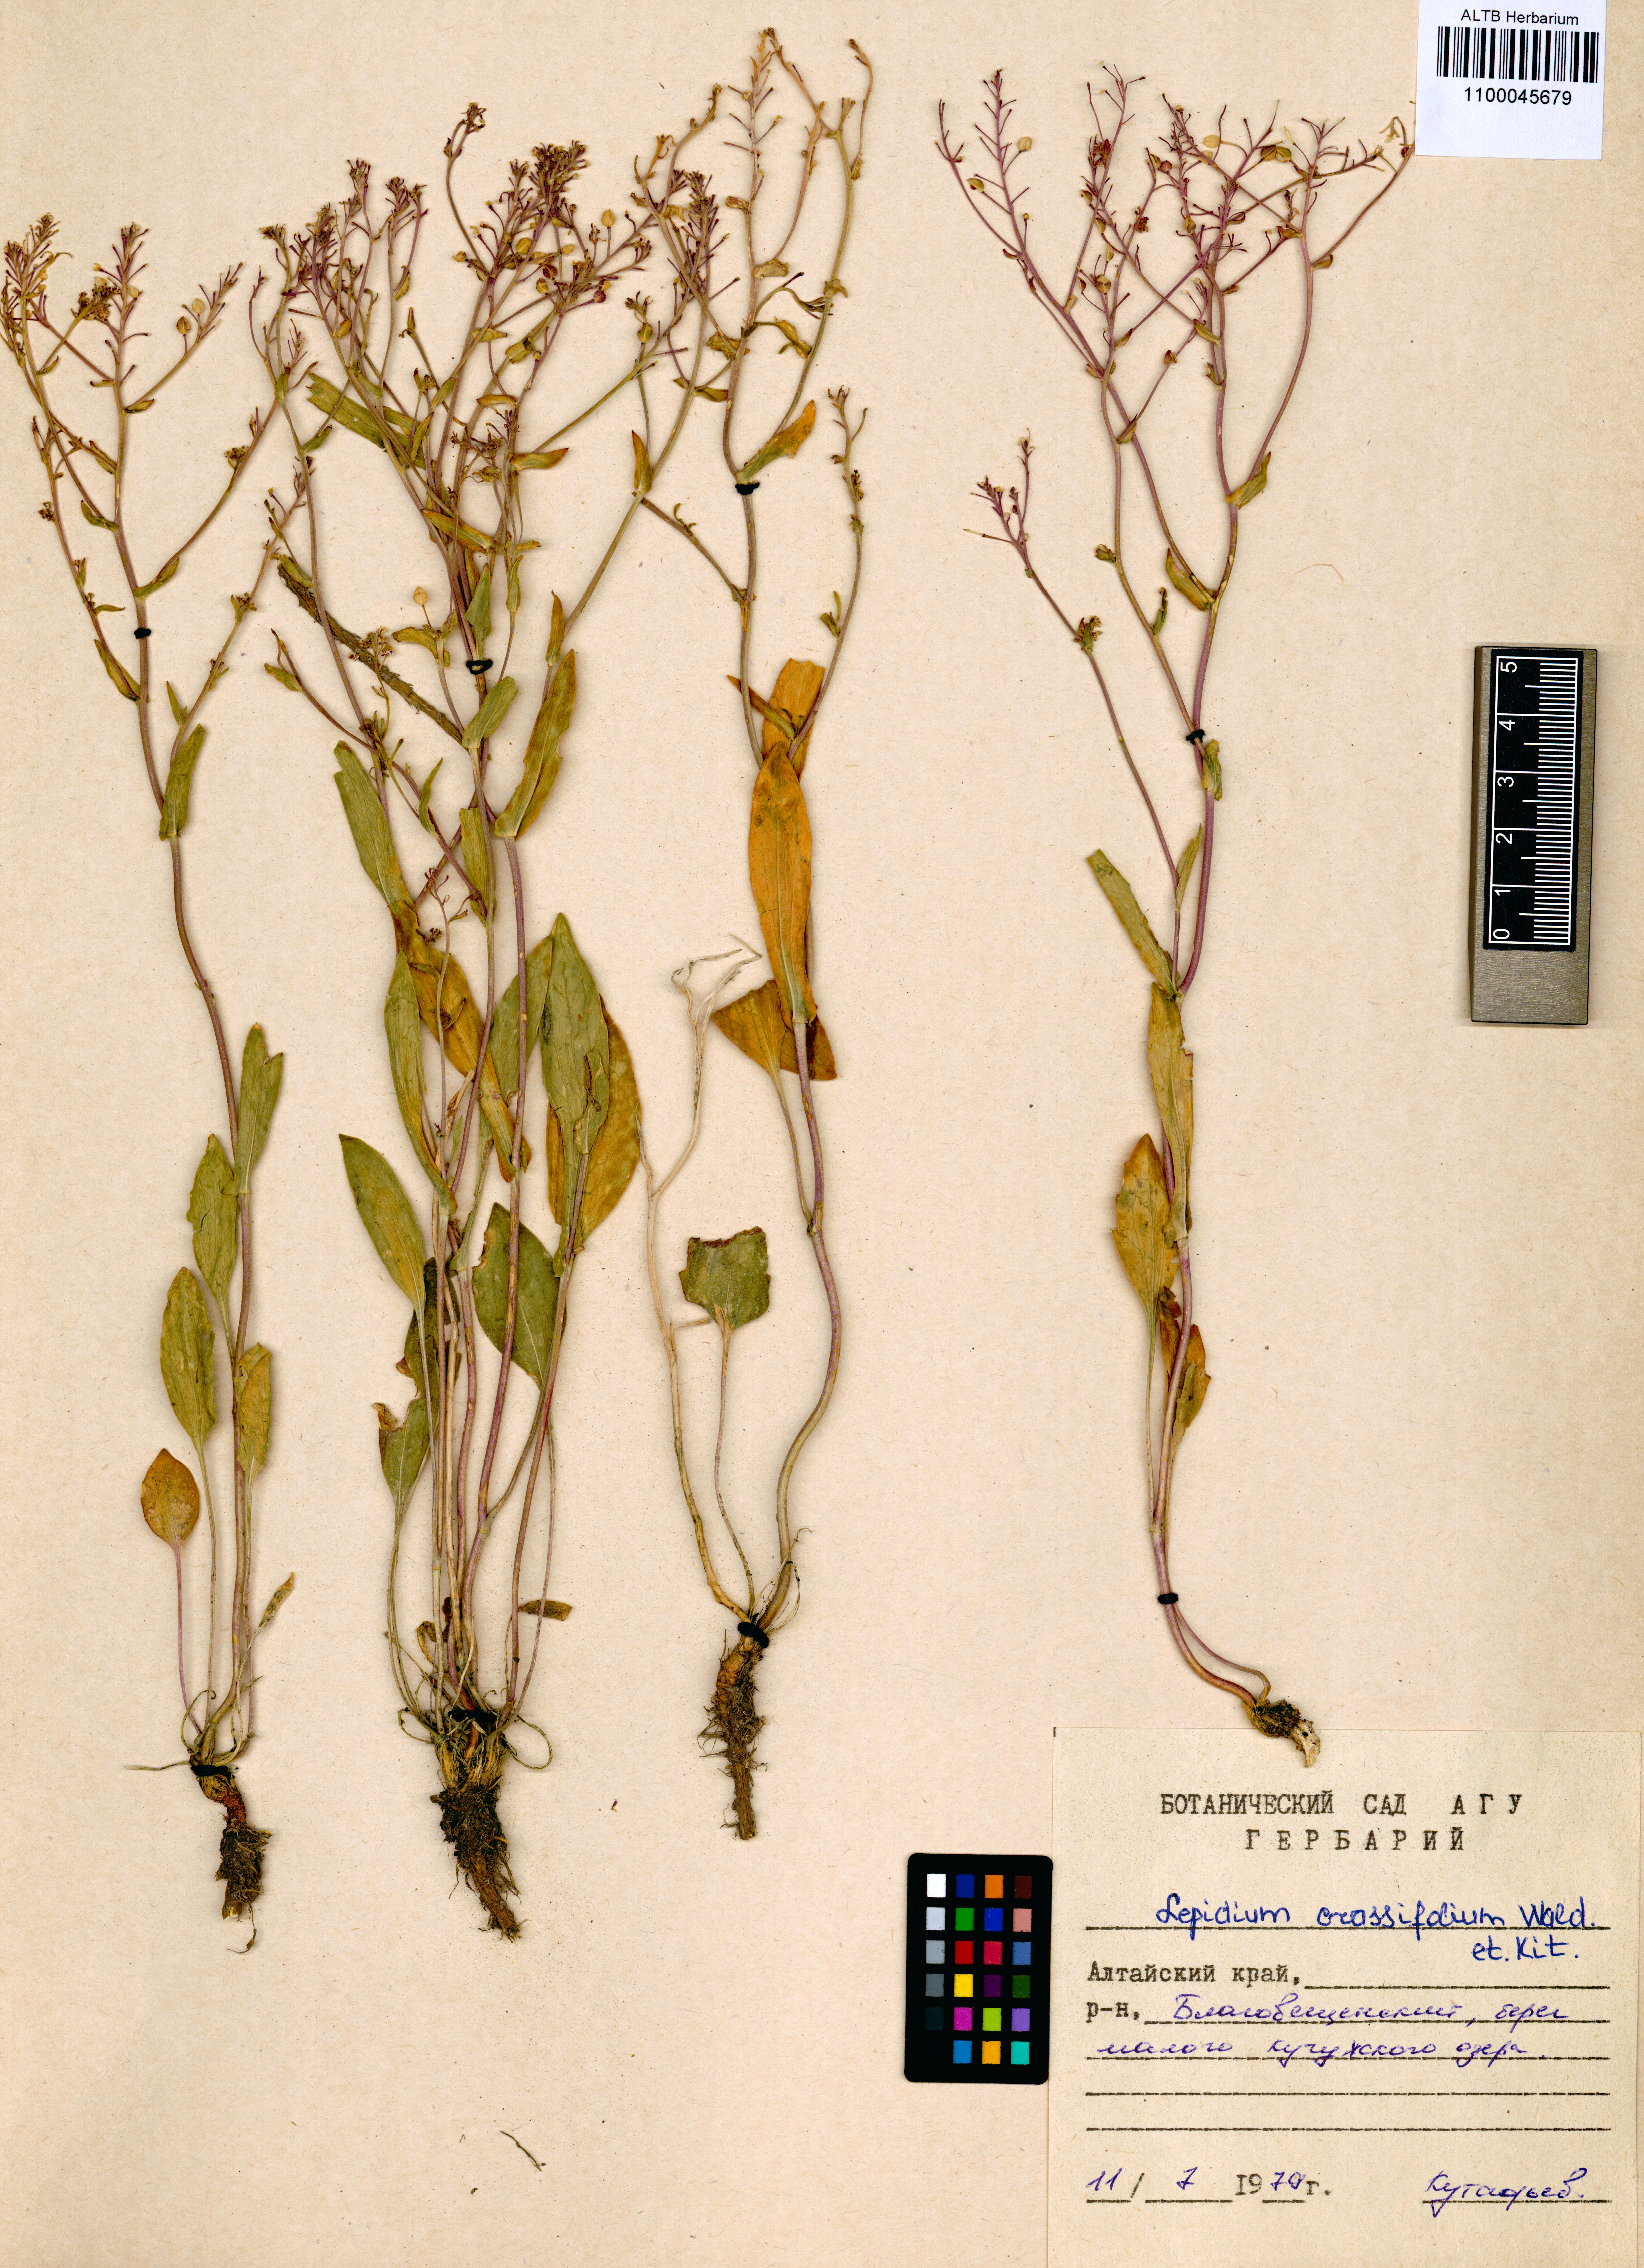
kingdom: Plantae
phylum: Tracheophyta
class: Magnoliopsida
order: Brassicales
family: Brassicaceae
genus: Lepidium
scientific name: Lepidium cartilagineum
